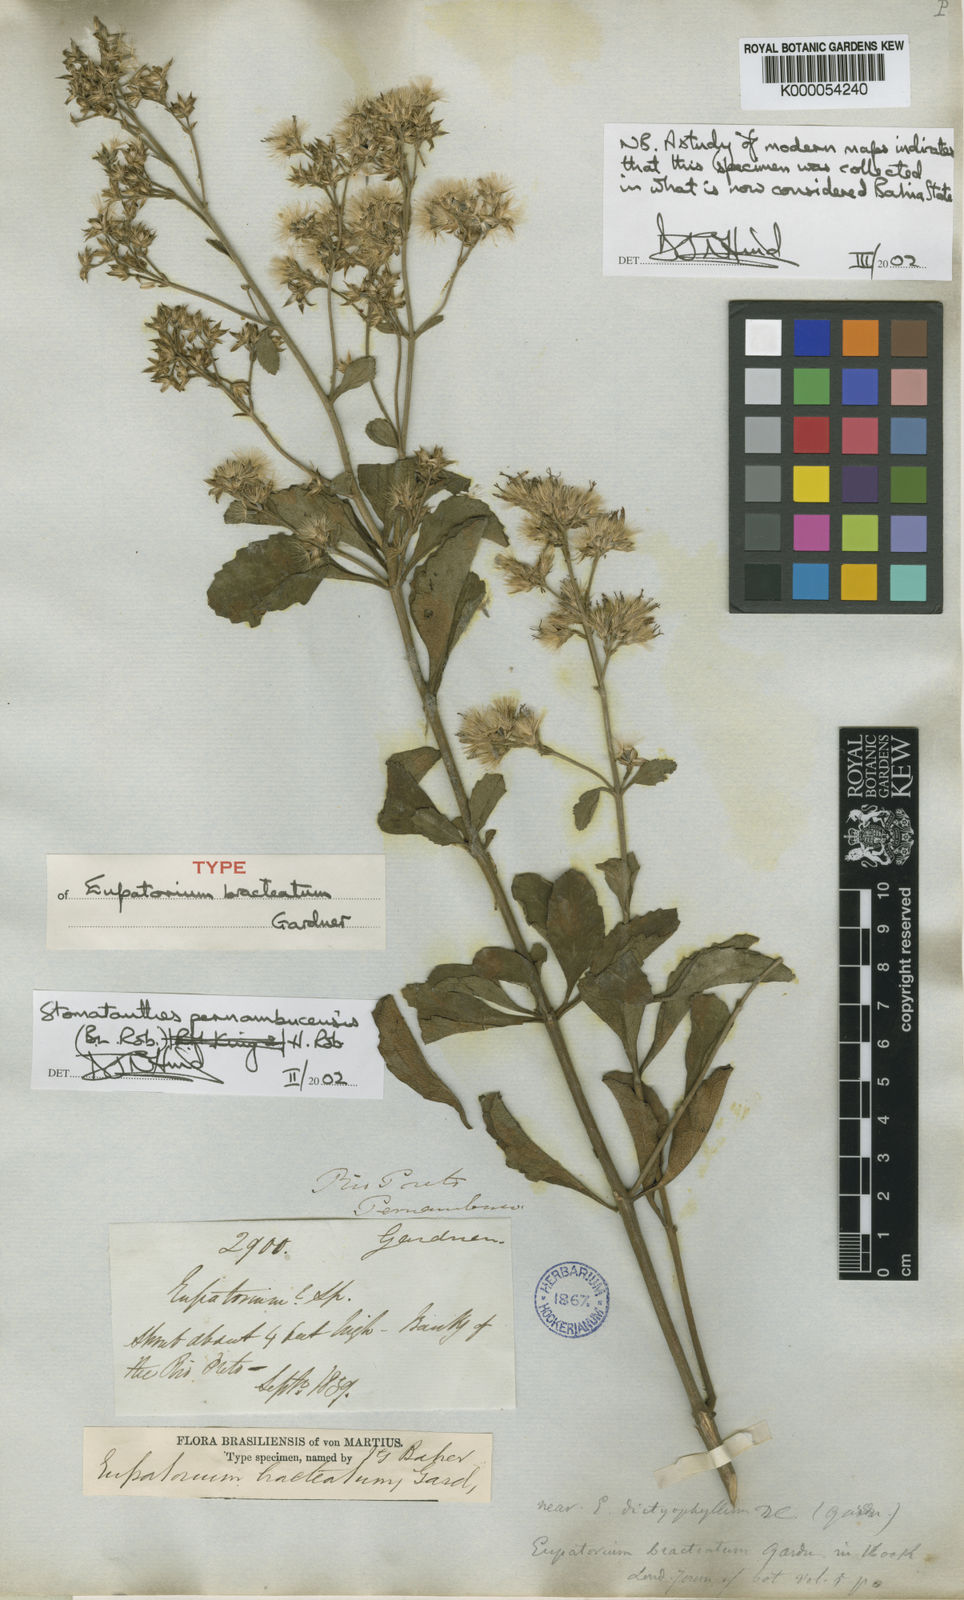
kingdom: Plantae
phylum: Tracheophyta
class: Magnoliopsida
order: Asterales
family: Asteraceae
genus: Stomatanthes
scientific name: Stomatanthes pernambucensis
